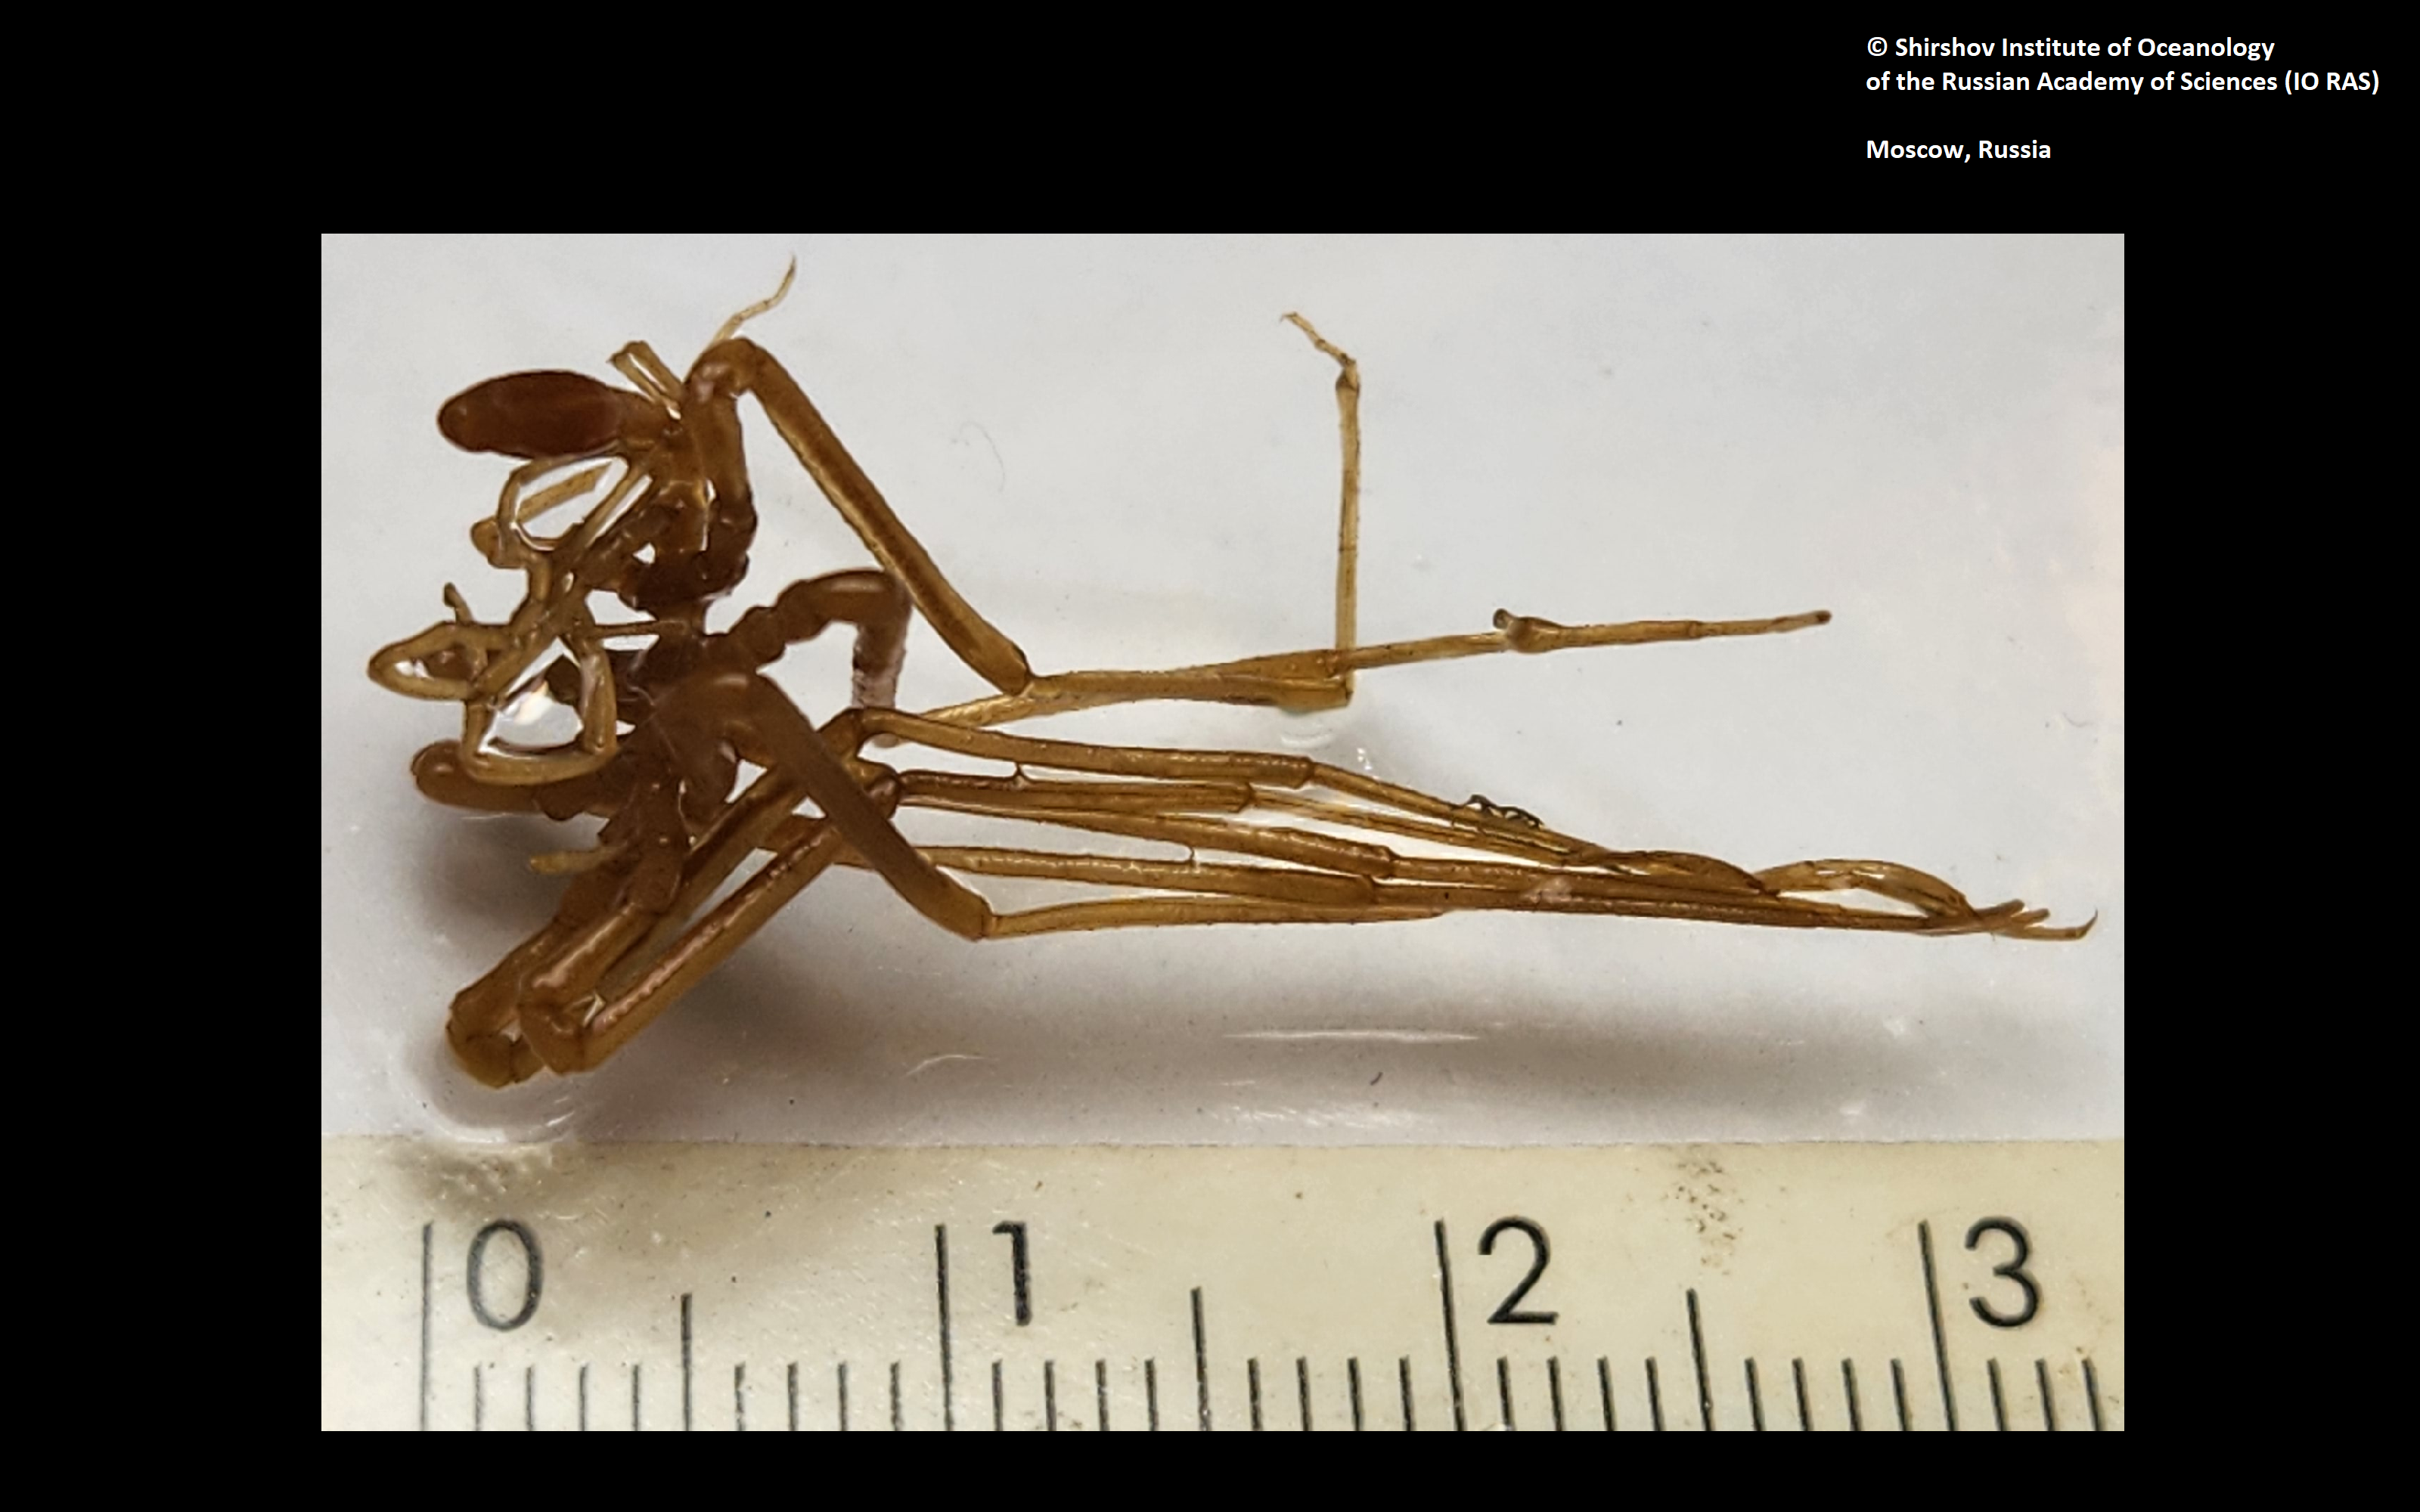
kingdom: Animalia
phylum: Arthropoda
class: Pycnogonida
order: Pantopoda
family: Ascorhynchidae
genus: Ascorhynchus
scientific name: Ascorhynchus birsteini
